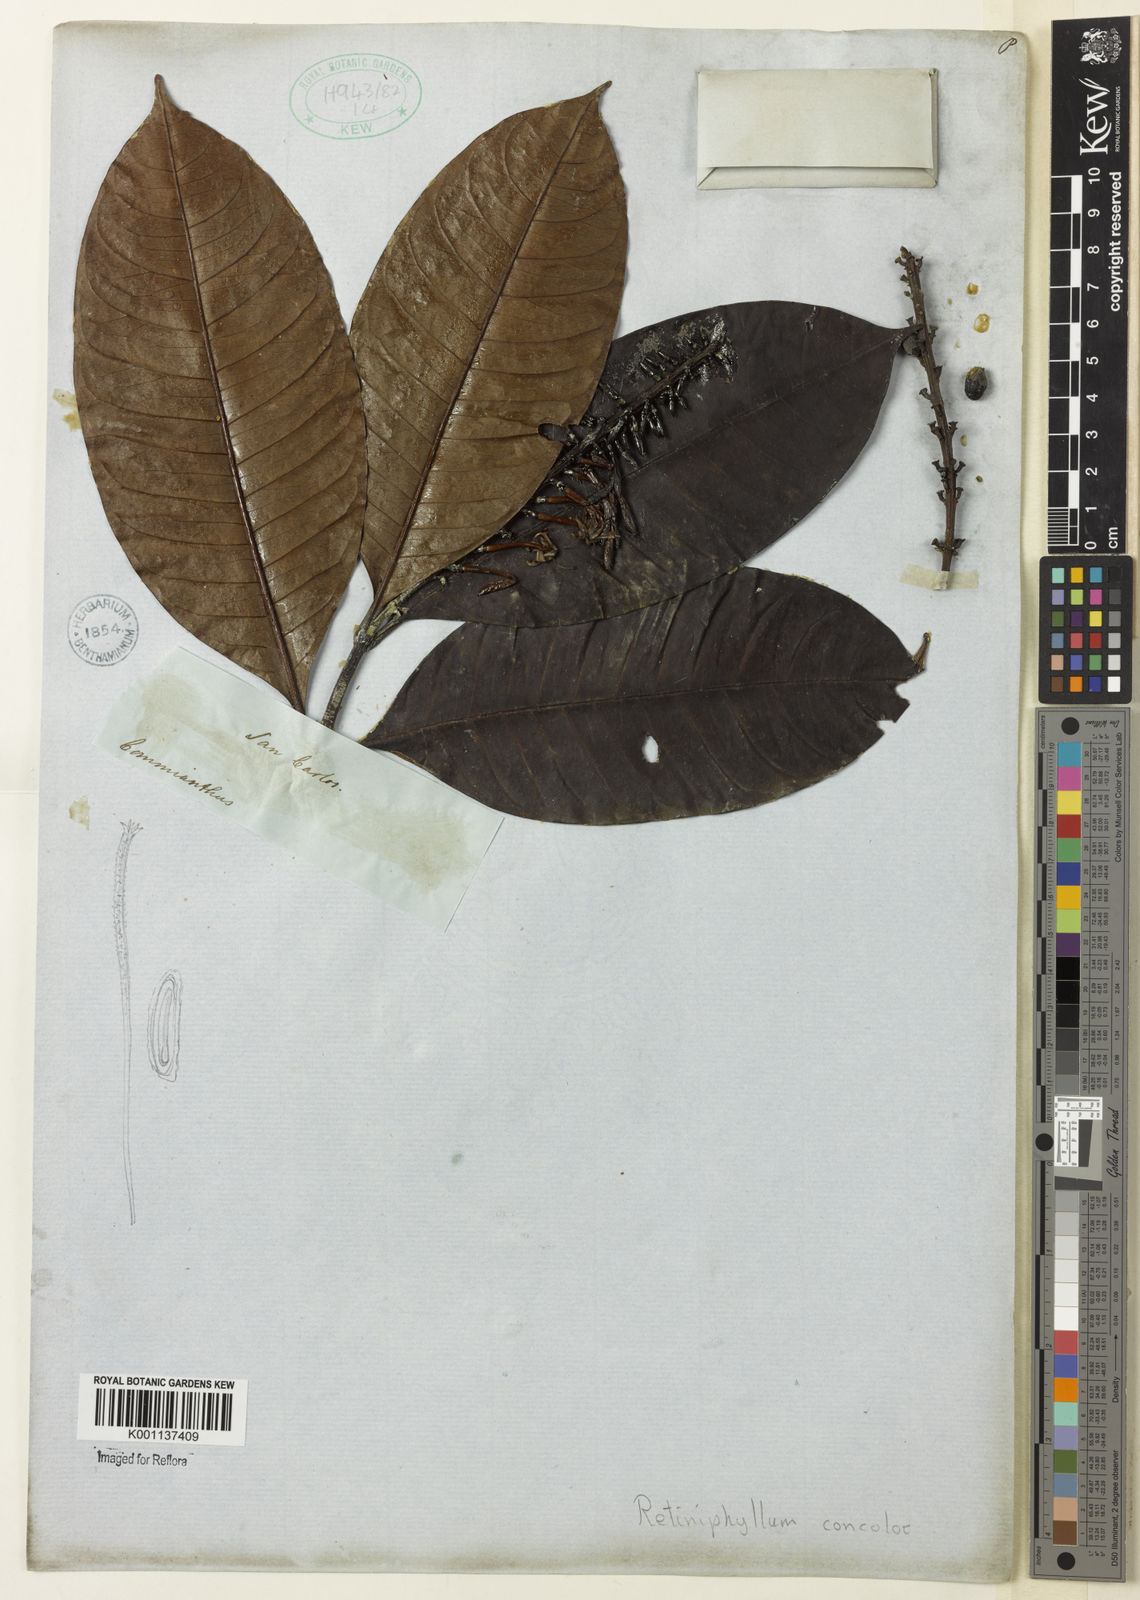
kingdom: Plantae
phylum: Tracheophyta
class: Magnoliopsida
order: Gentianales
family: Rubiaceae
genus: Retiniphyllum
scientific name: Retiniphyllum
